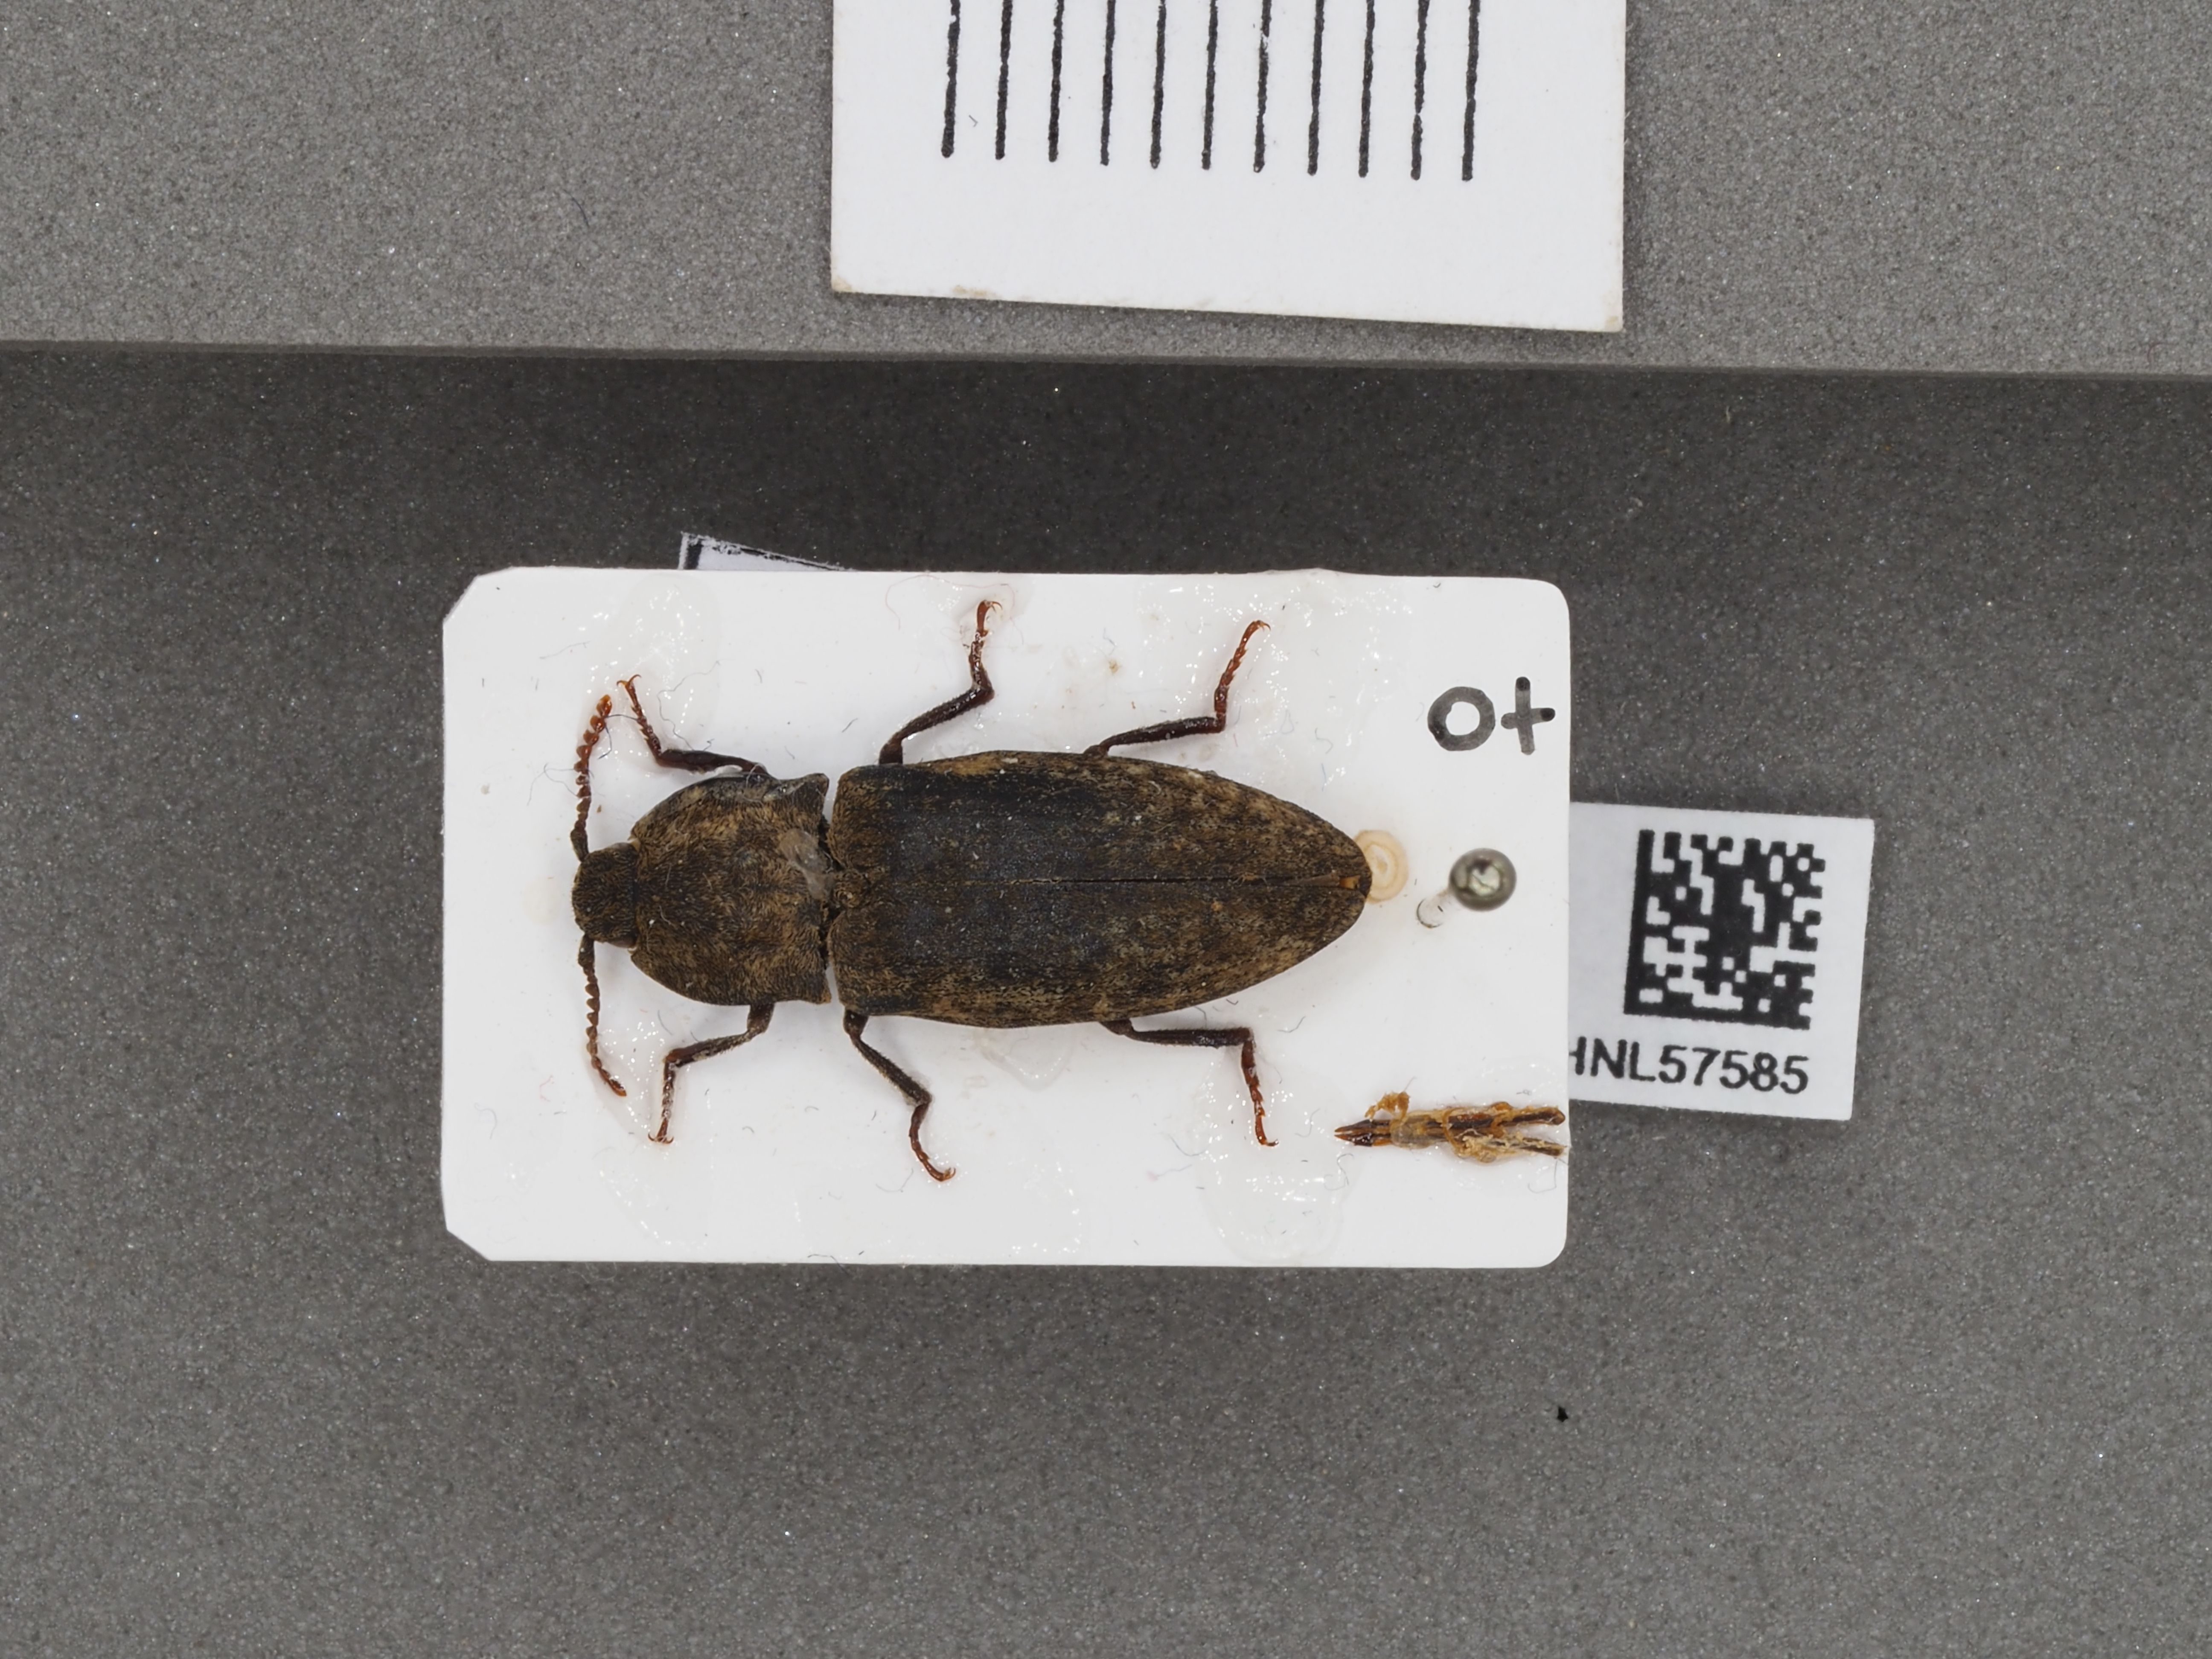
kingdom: Animalia
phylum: Arthropoda
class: Insecta
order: Coleoptera
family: Elateridae
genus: Agrypnus
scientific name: Agrypnus murinus
